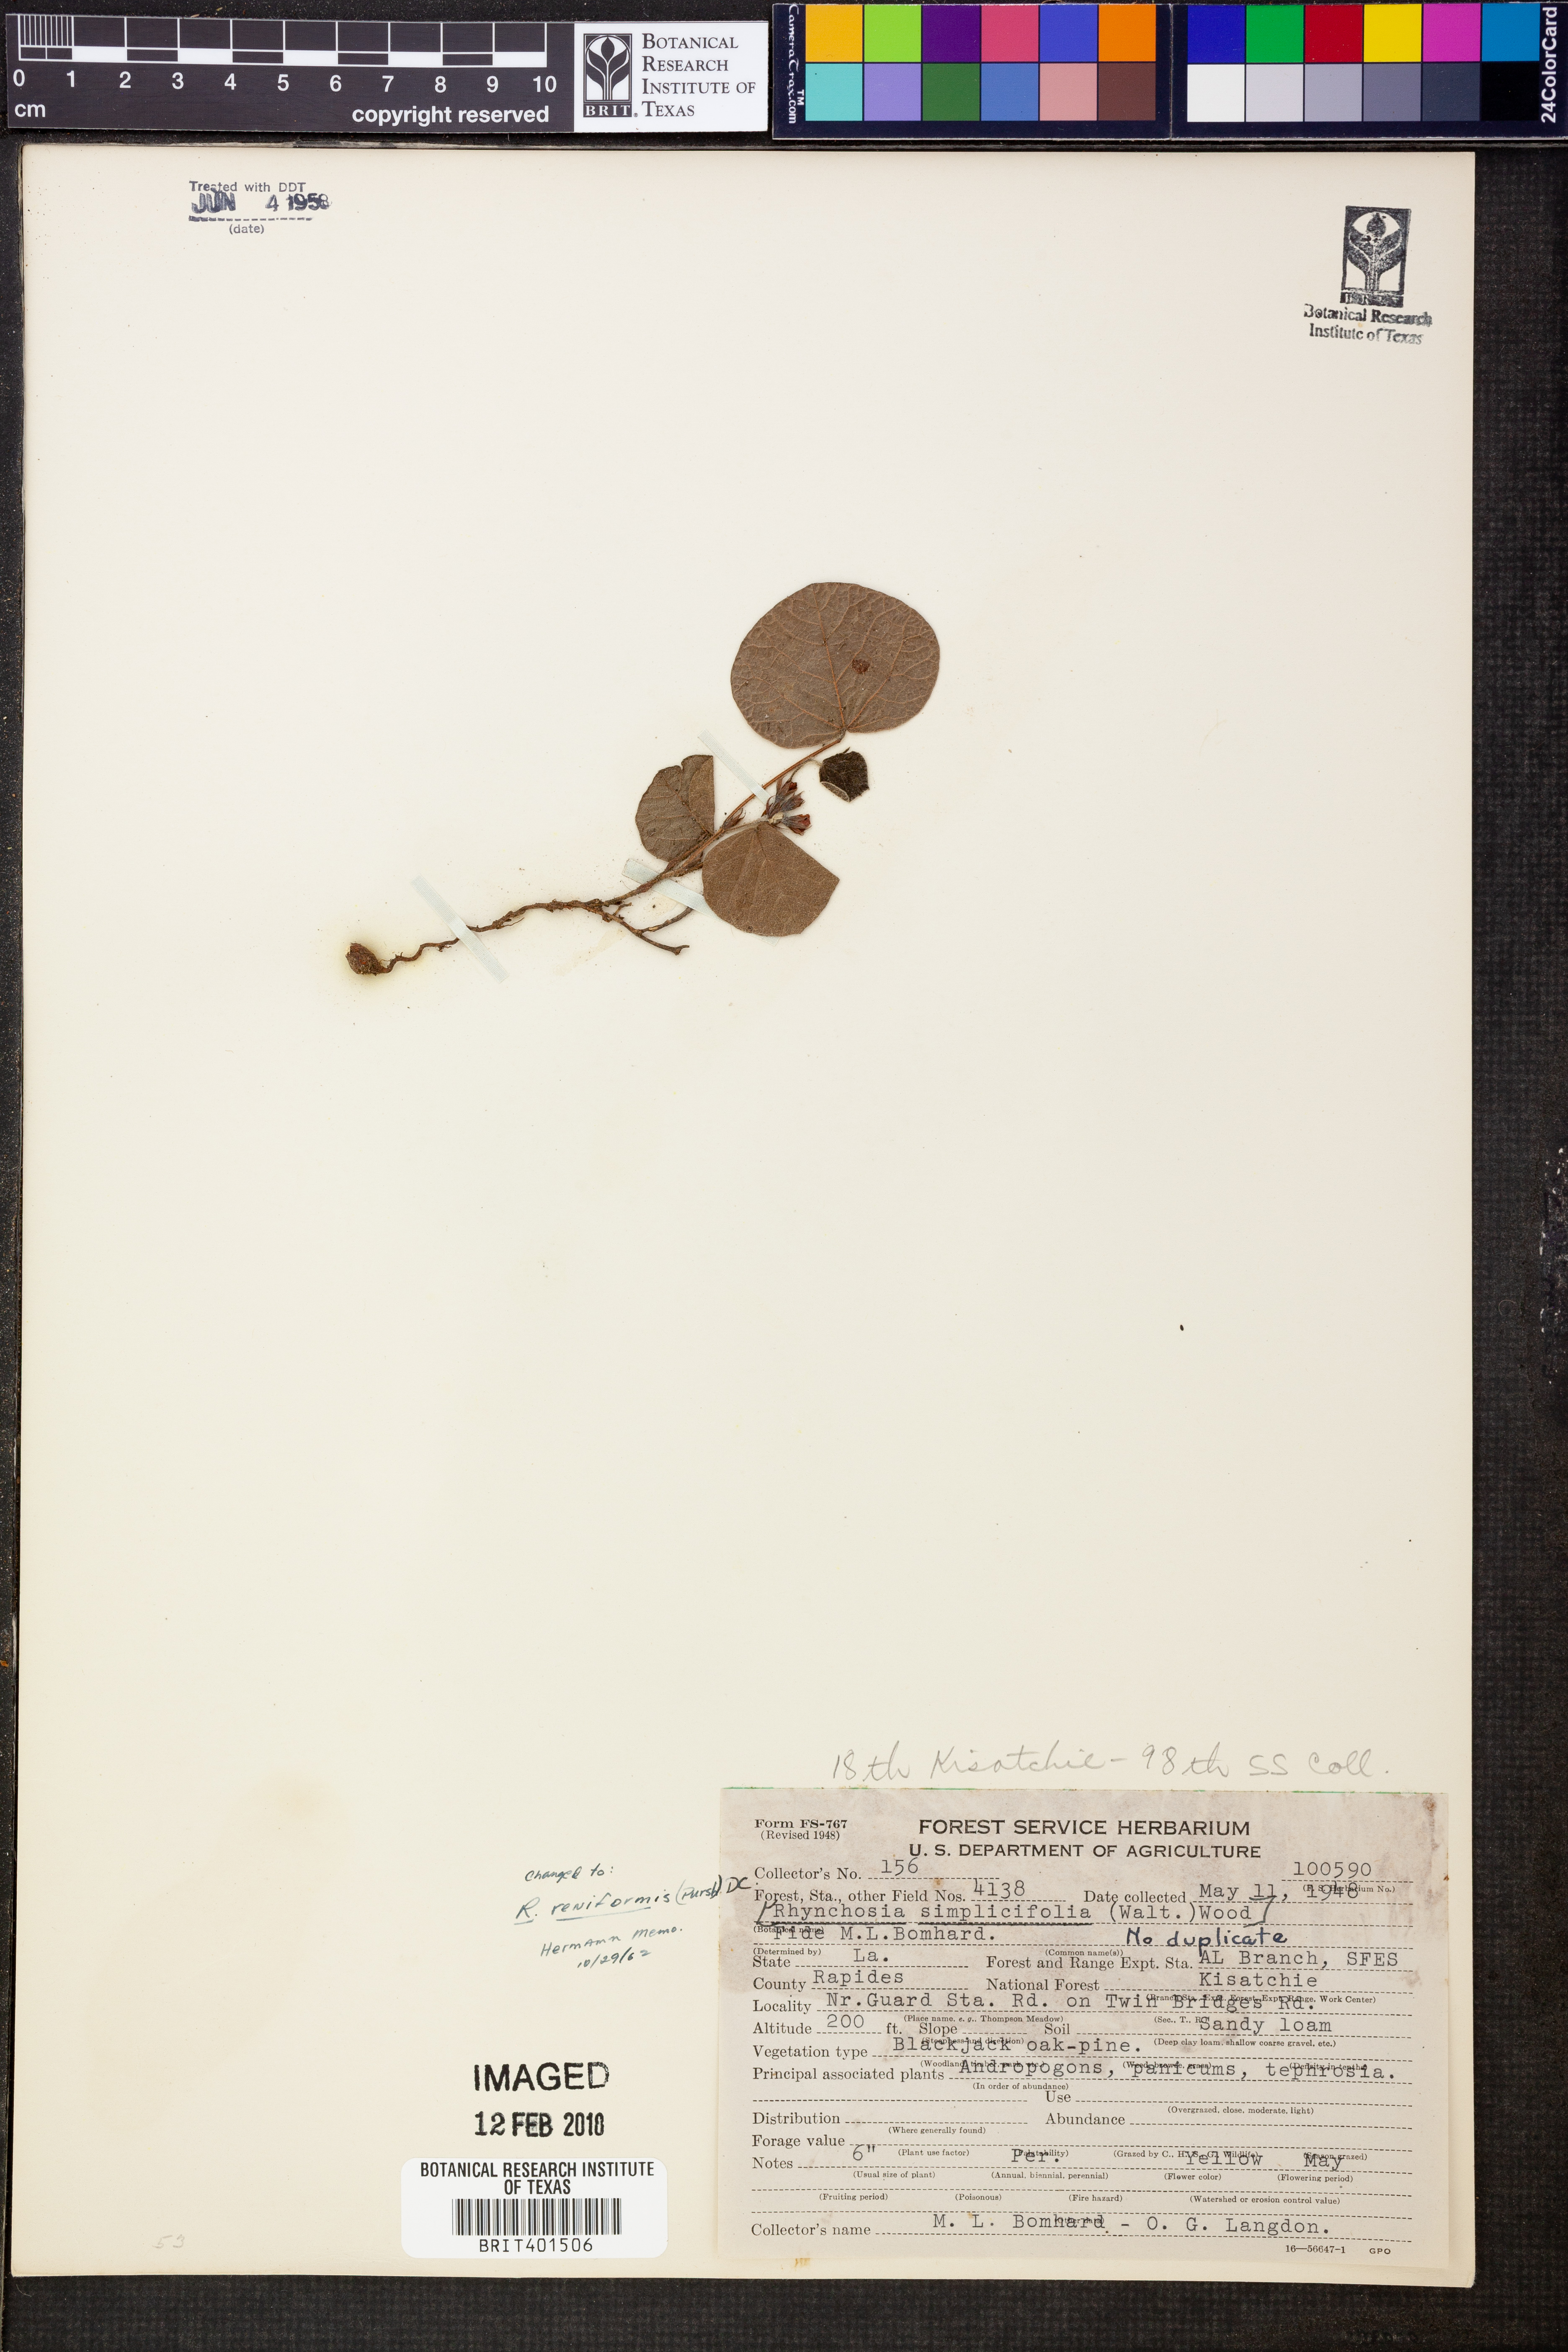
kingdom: Plantae
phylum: Tracheophyta
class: Magnoliopsida
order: Fabales
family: Fabaceae
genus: Rhynchosia
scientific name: Rhynchosia reniformis
